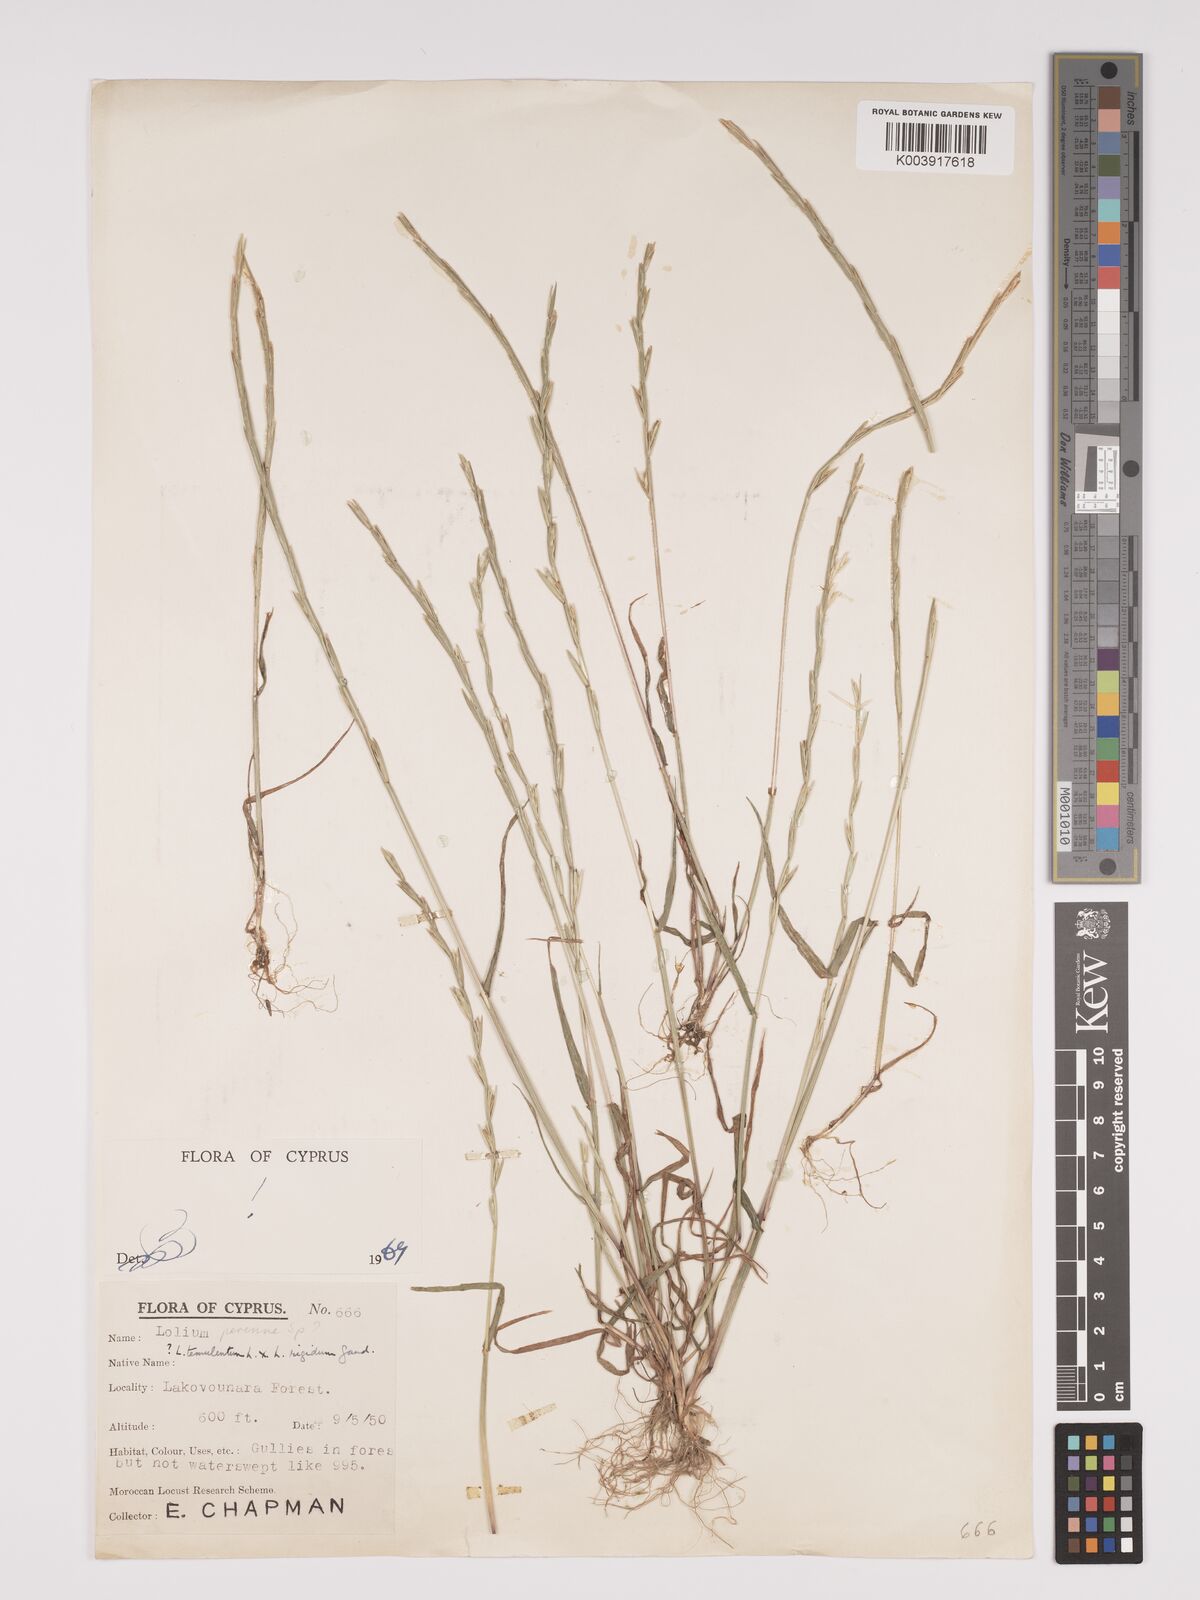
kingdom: Plantae
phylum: Tracheophyta
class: Liliopsida
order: Poales
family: Poaceae
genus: Lolium
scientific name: Lolium temulentum
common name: Darnel
